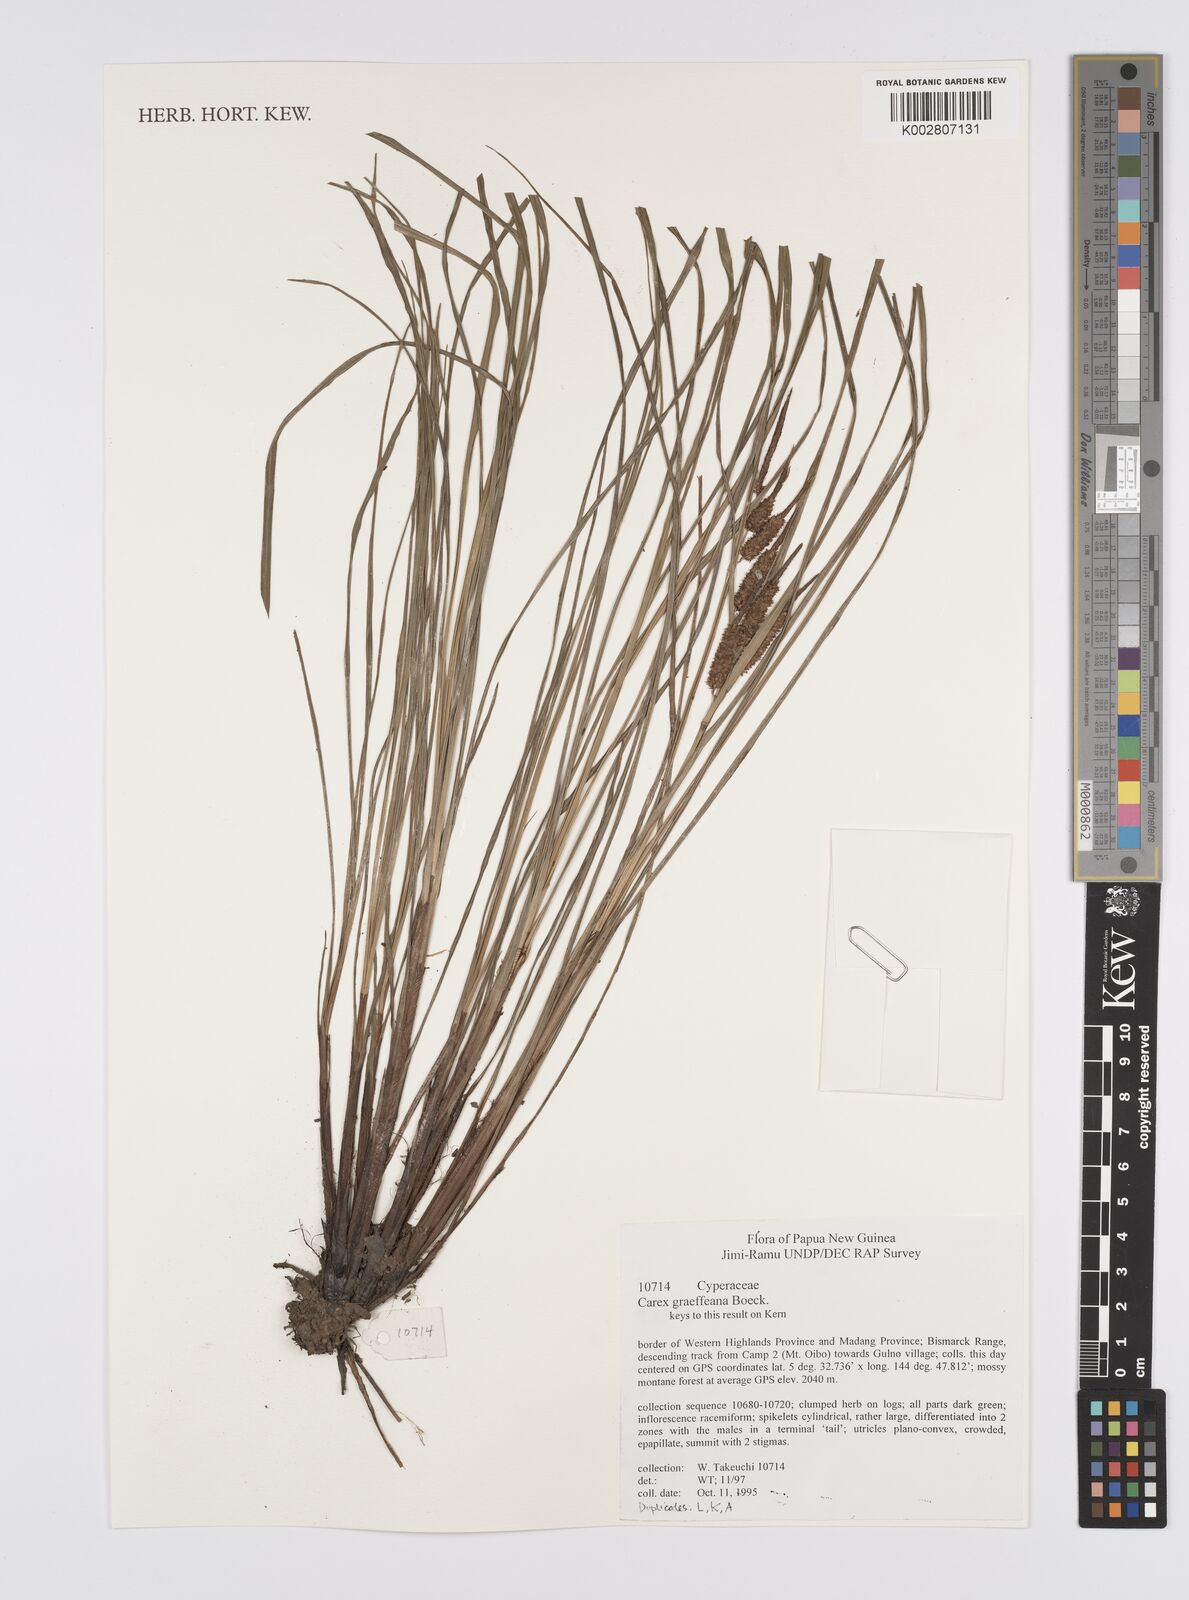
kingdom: Plantae
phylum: Tracheophyta
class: Liliopsida
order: Poales
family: Cyperaceae
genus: Carex
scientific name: Carex graeffeana
